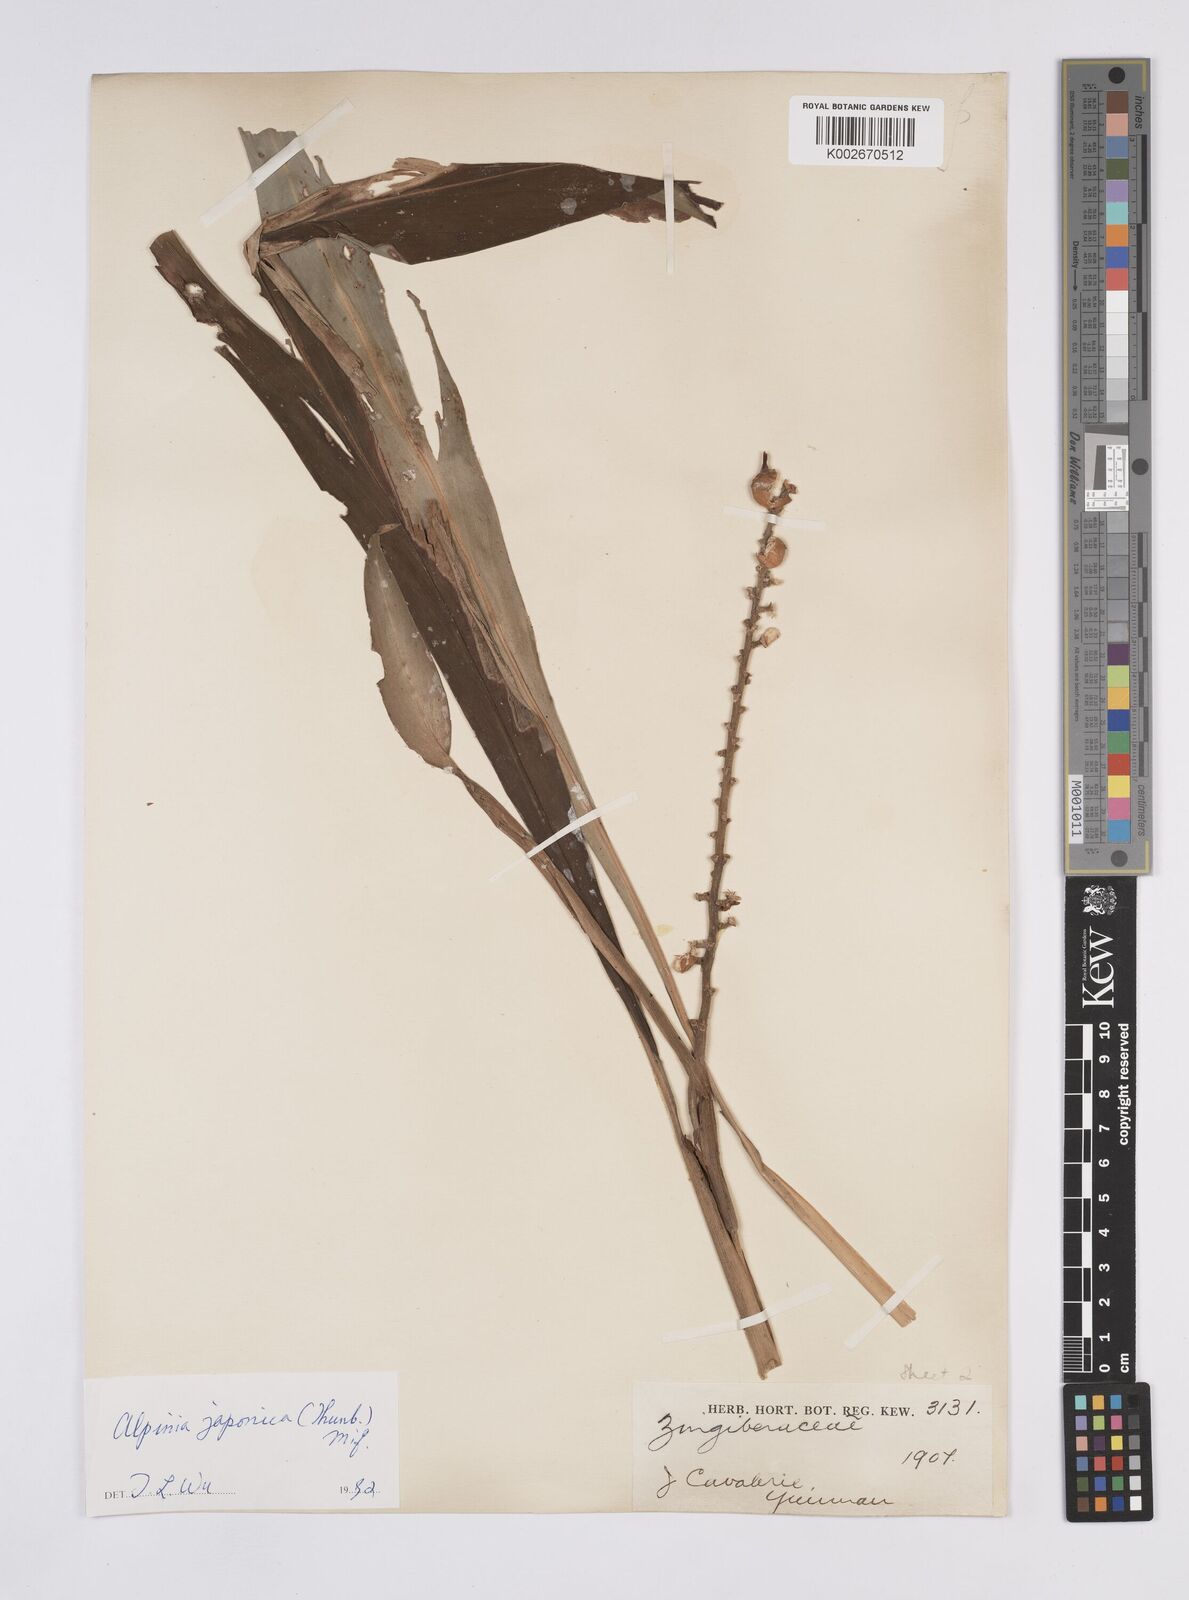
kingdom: Plantae
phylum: Tracheophyta
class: Liliopsida
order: Zingiberales
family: Zingiberaceae
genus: Alpinia
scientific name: Alpinia japonica
